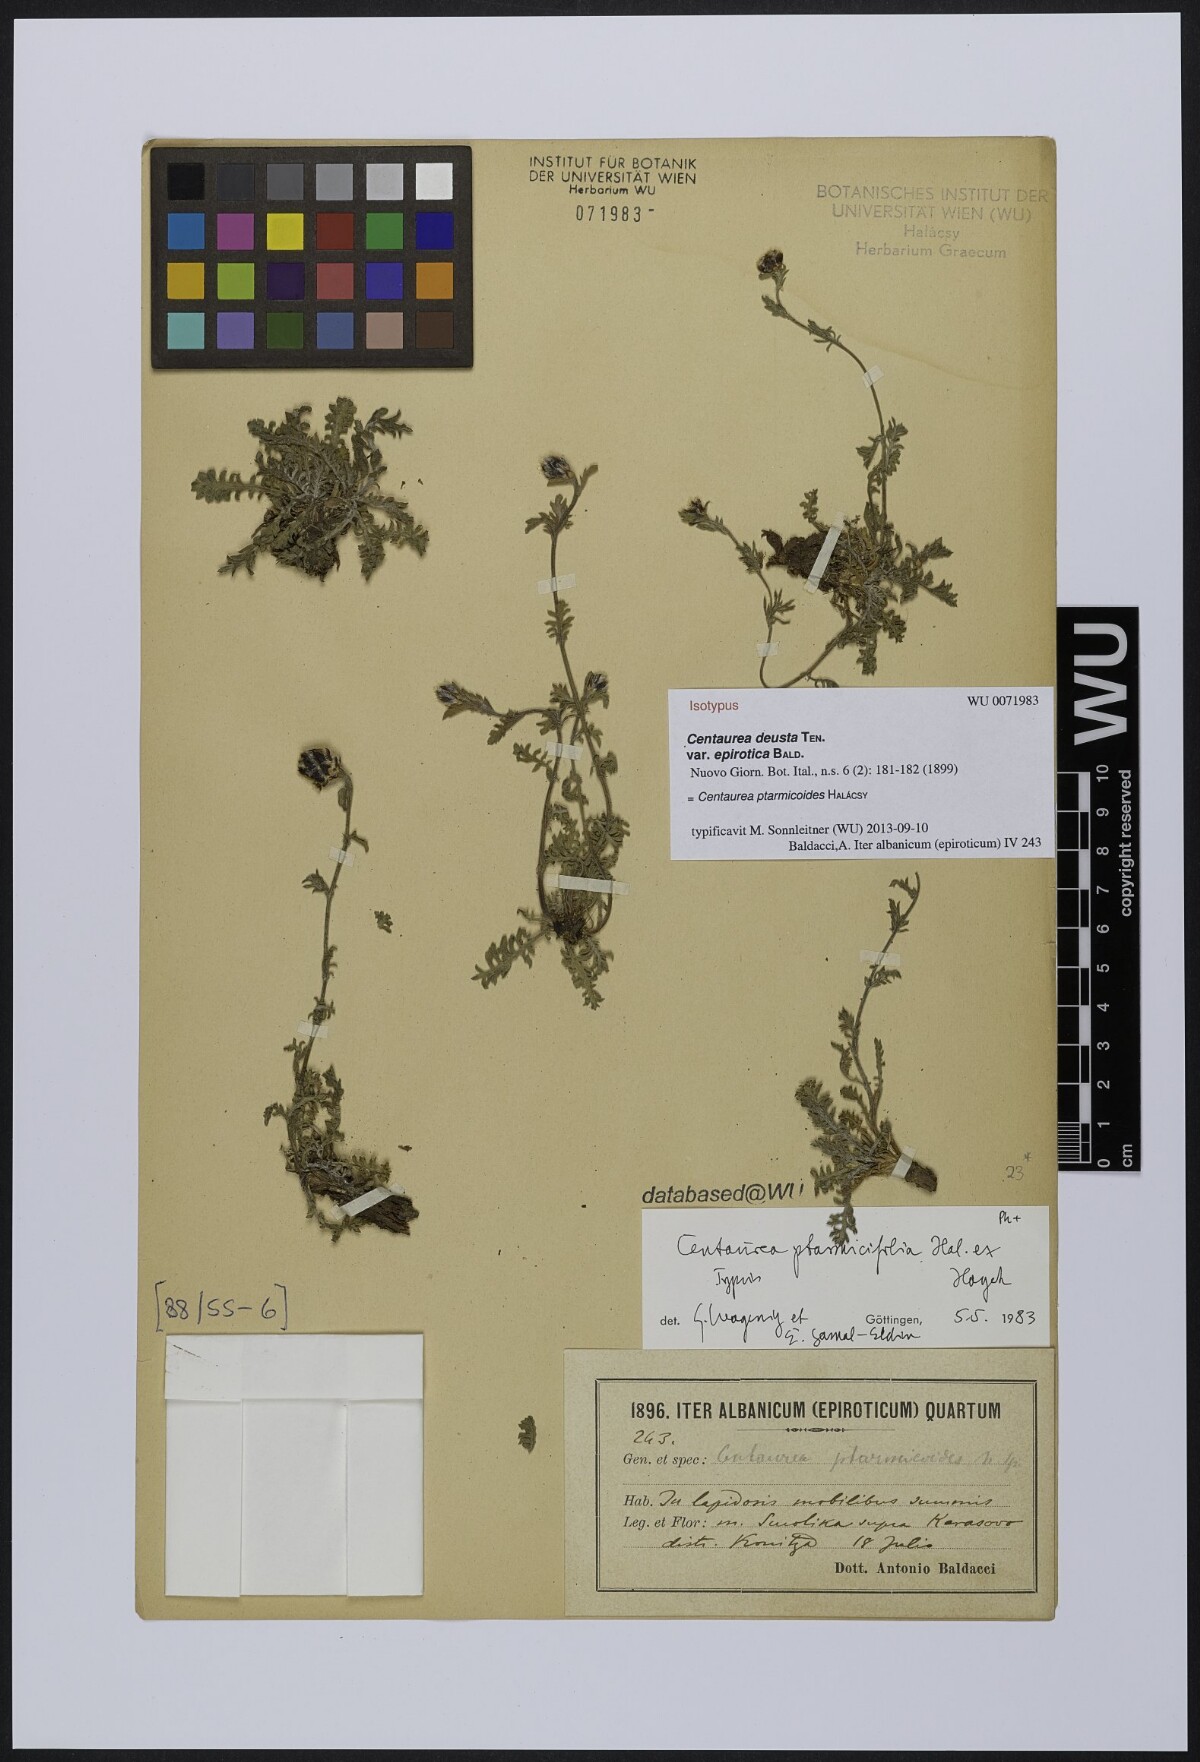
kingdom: Plantae
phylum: Tracheophyta
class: Magnoliopsida
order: Asterales
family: Asteraceae
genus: Centaurea
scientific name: Centaurea ptarmicifolia
